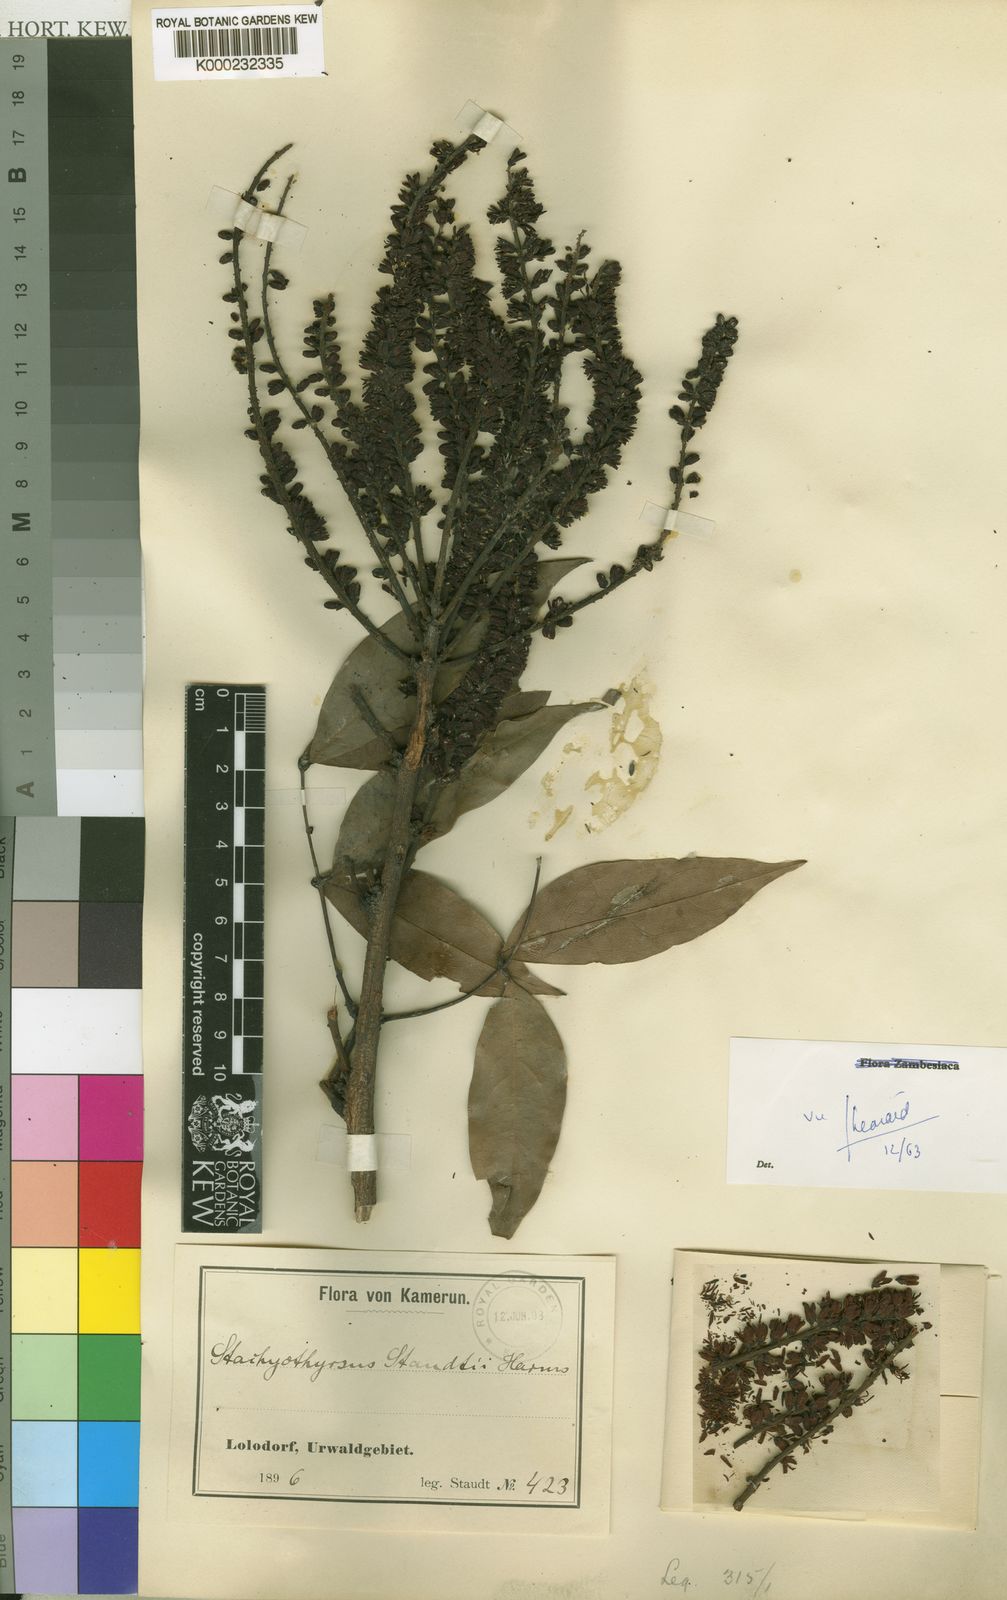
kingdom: Plantae
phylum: Tracheophyta
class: Magnoliopsida
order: Fabales
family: Fabaceae
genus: Stachyothyrsus
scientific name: Stachyothyrsus staudtii
